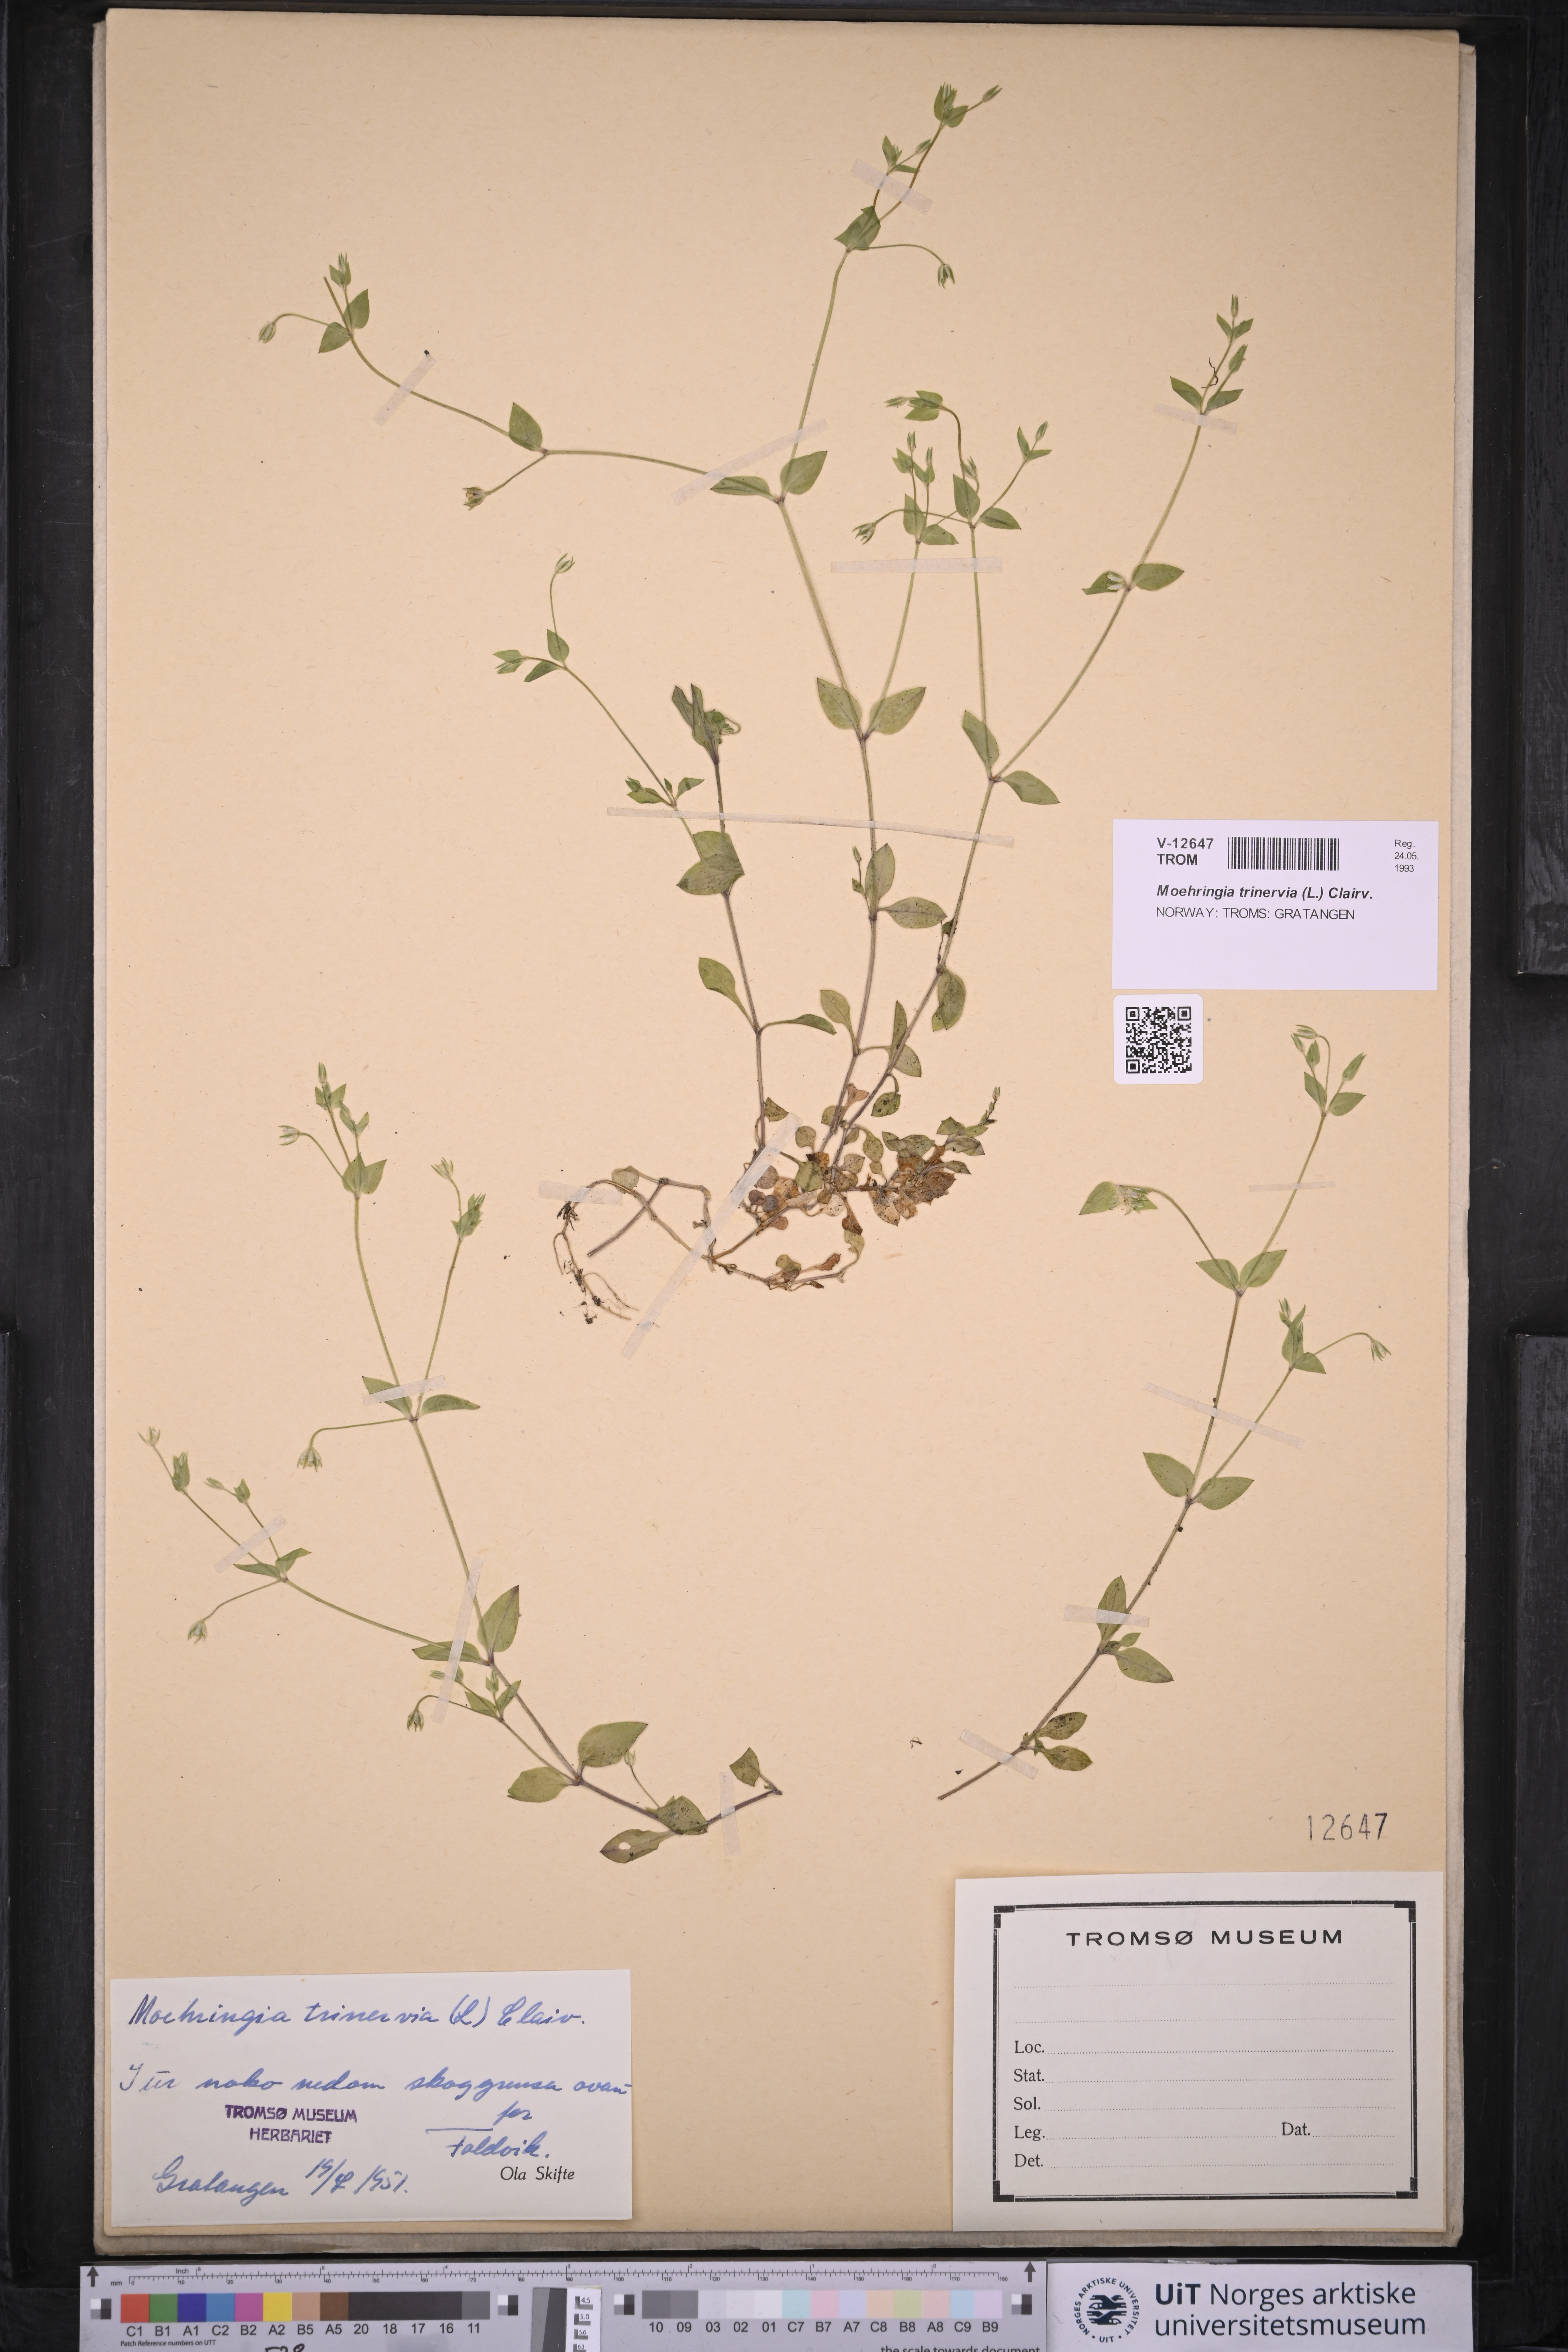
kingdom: Plantae
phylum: Tracheophyta
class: Magnoliopsida
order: Caryophyllales
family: Caryophyllaceae
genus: Moehringia
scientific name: Moehringia trinervia
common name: Three-nerved sandwort
